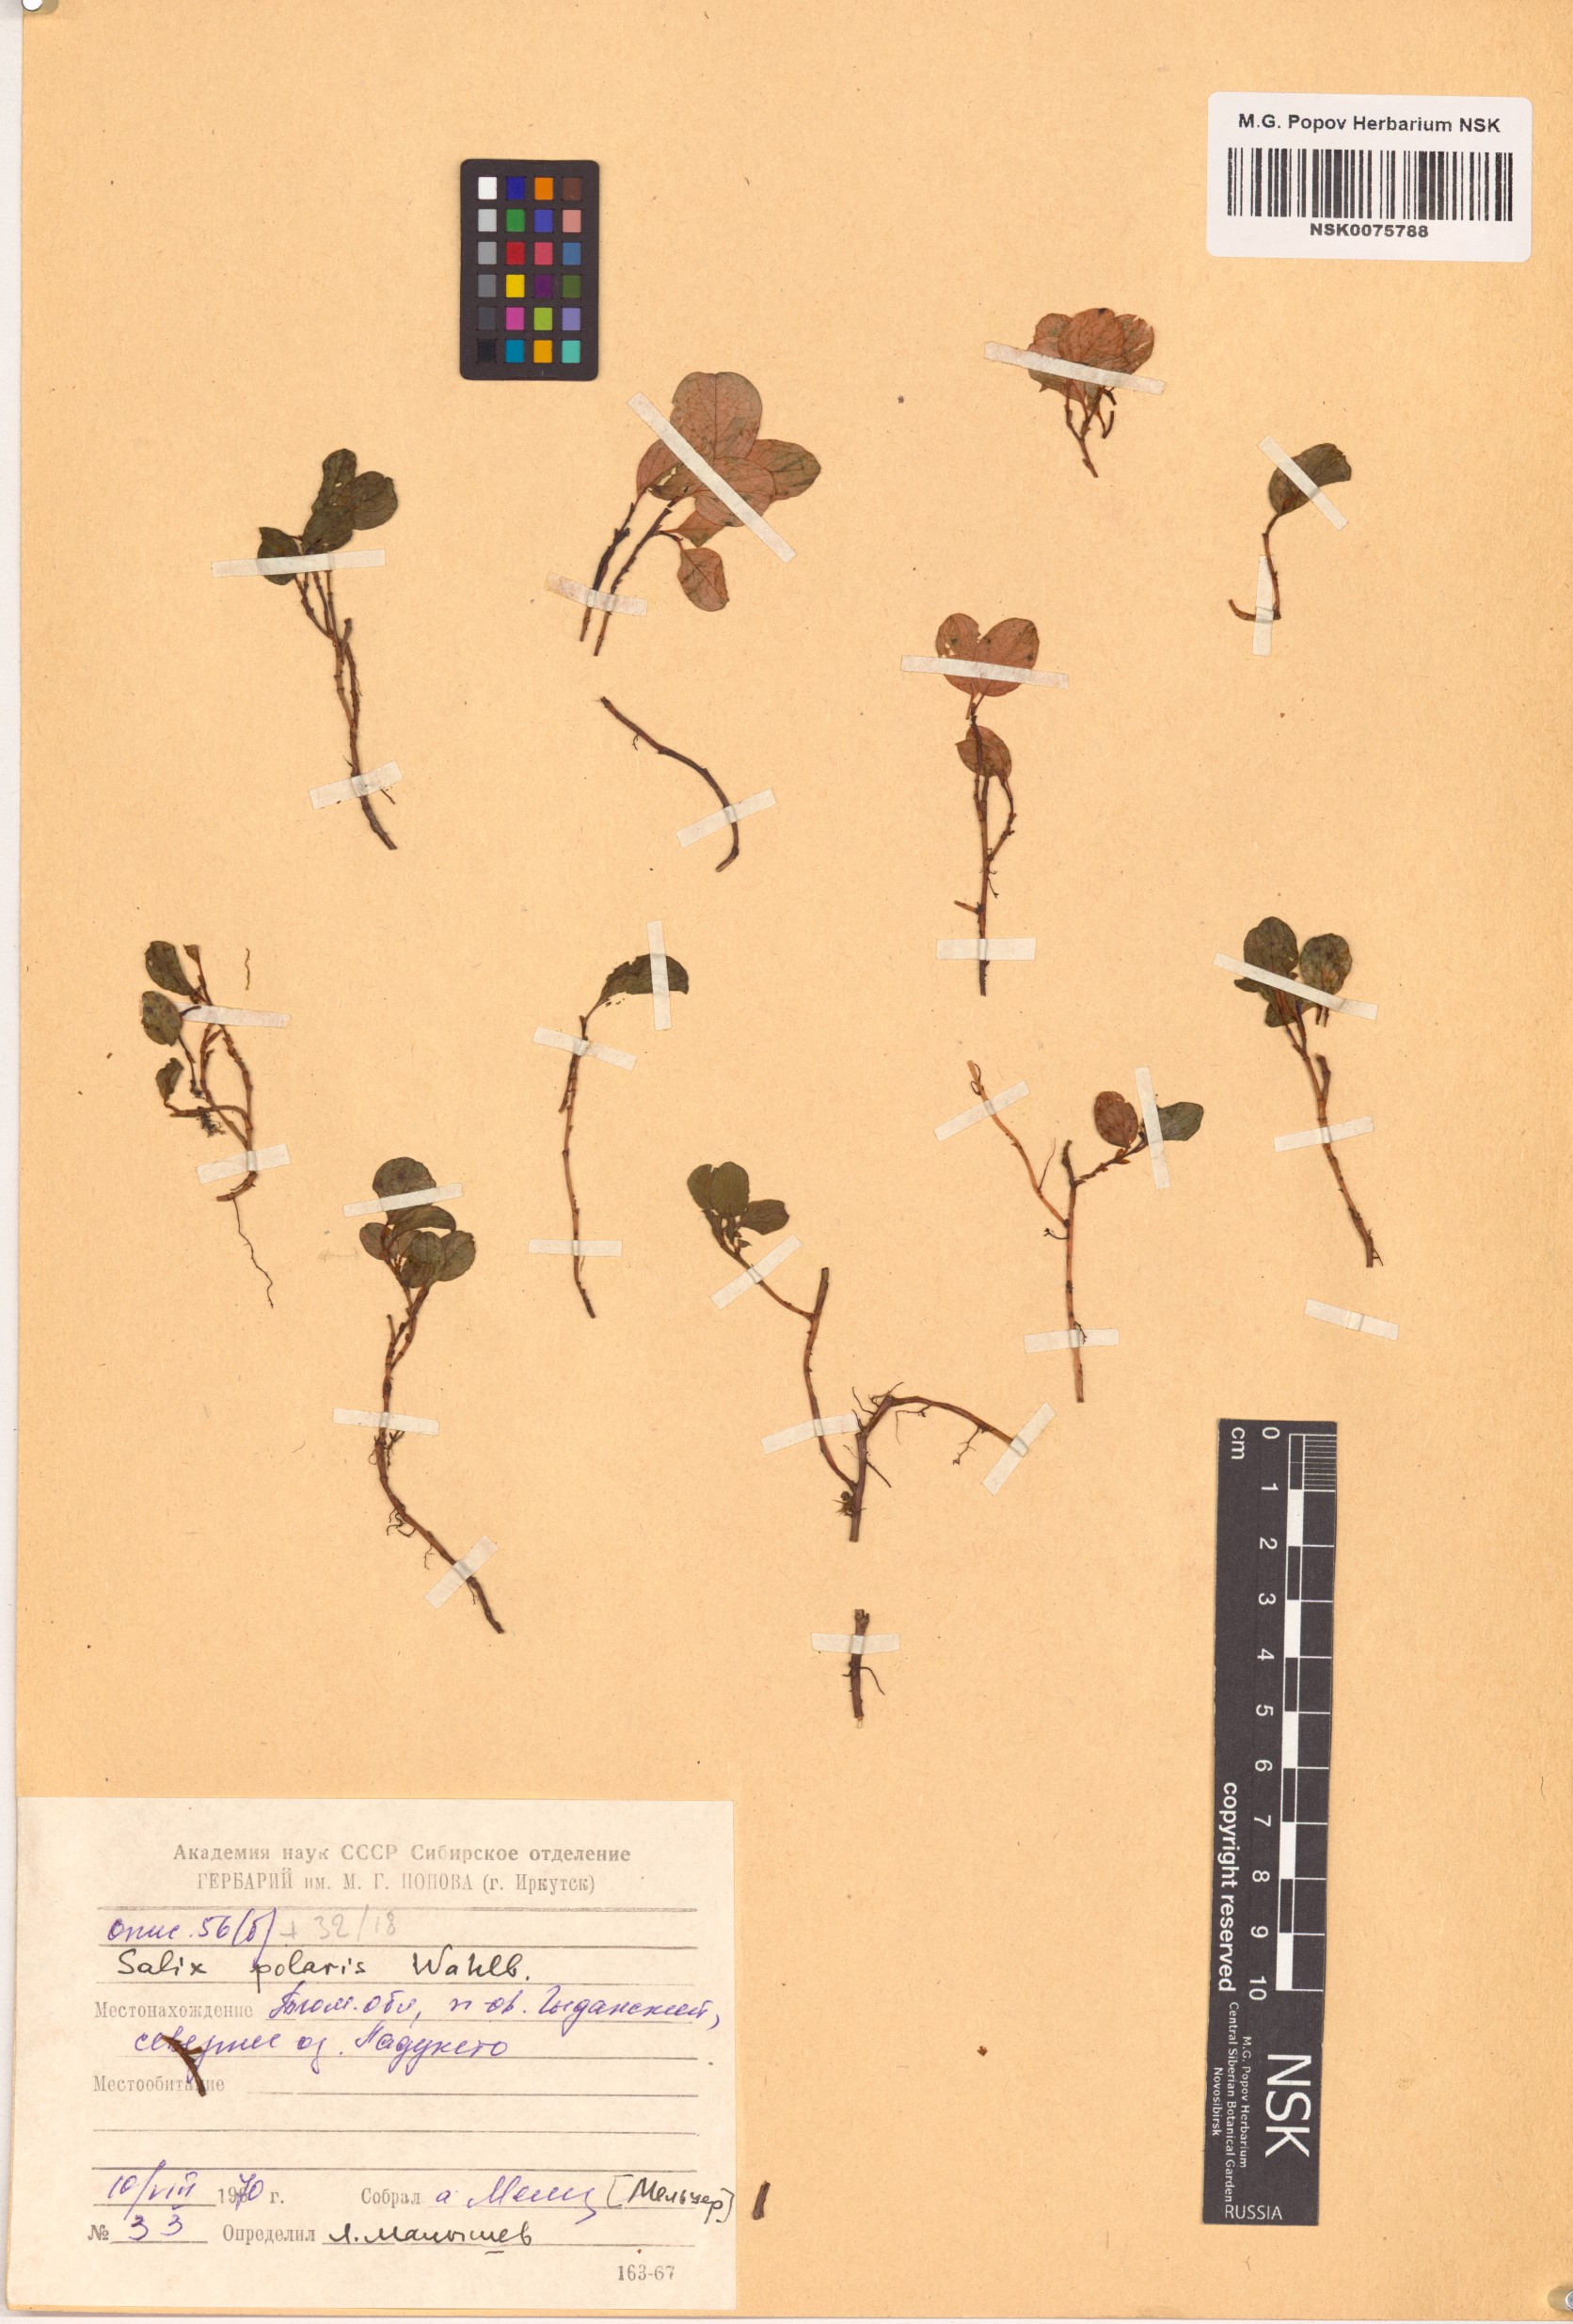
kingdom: Plantae
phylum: Tracheophyta
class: Magnoliopsida
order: Malpighiales
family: Salicaceae
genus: Salix
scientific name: Salix polaris
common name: Polar willow
